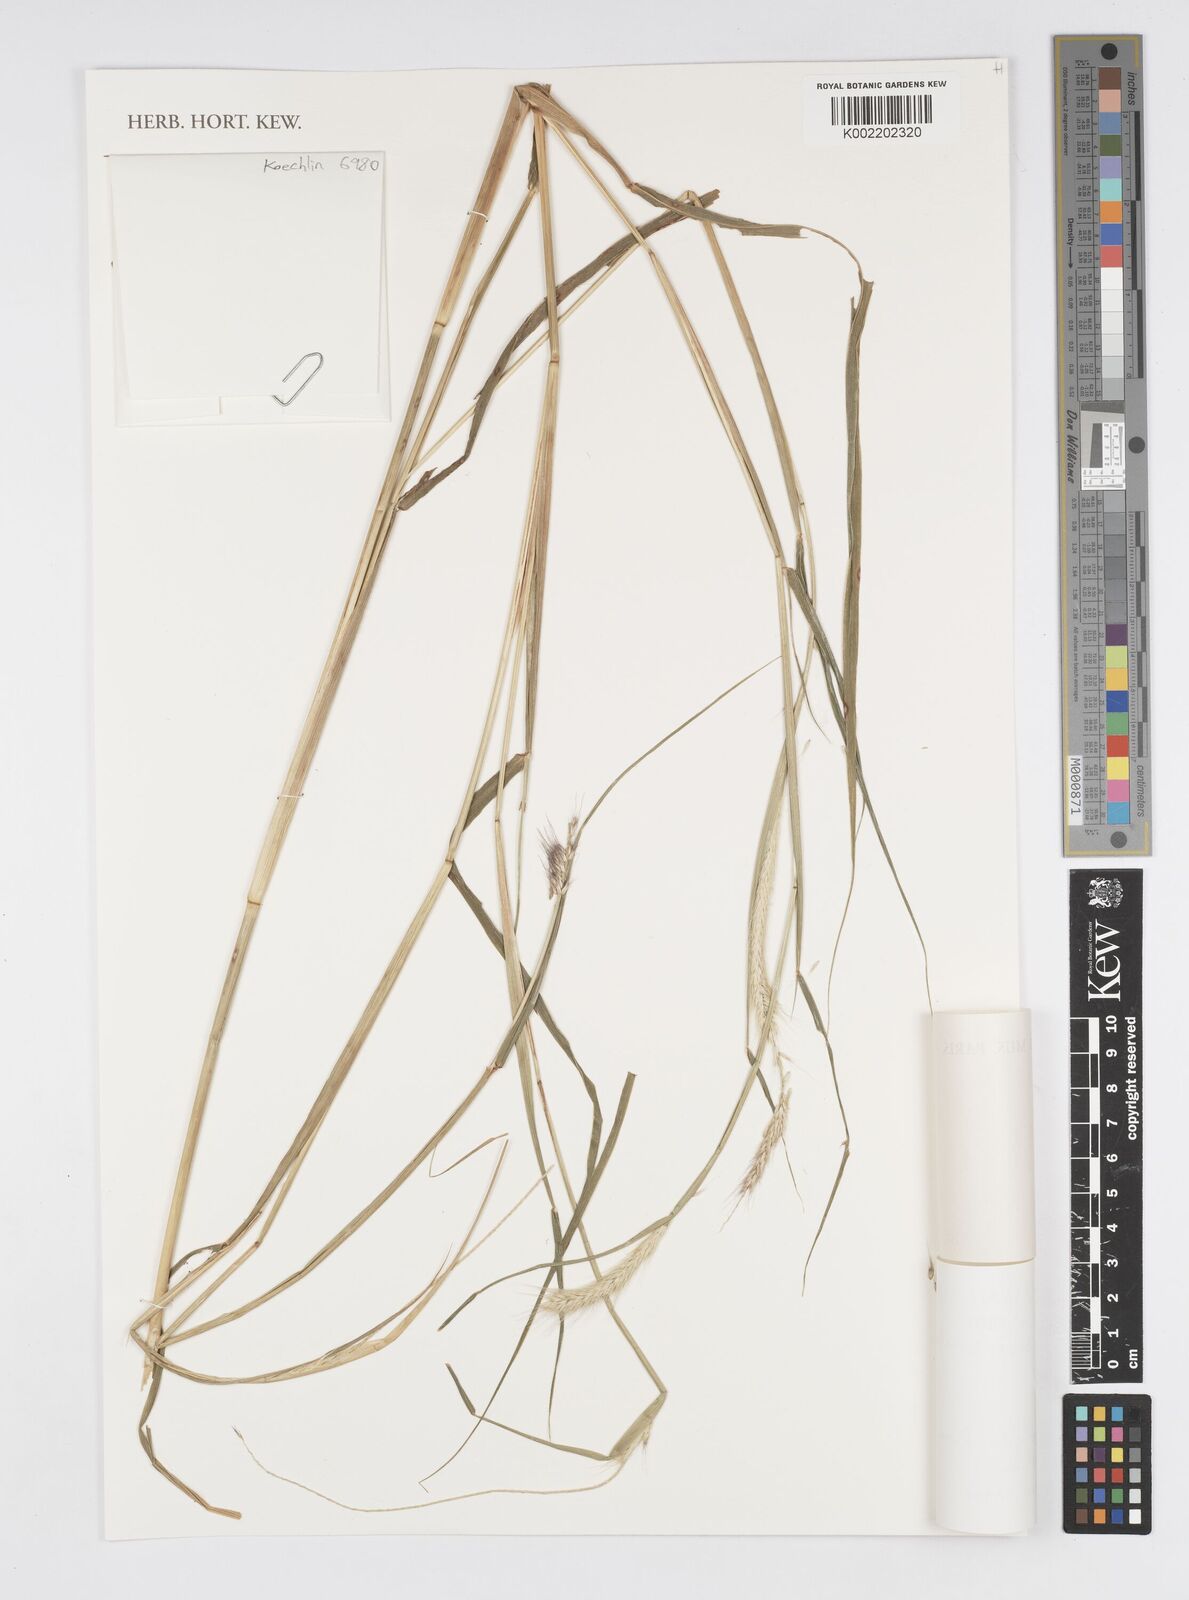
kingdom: Plantae
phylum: Tracheophyta
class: Liliopsida
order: Poales
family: Poaceae
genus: Setaria
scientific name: Setaria parviflora
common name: Knotroot bristle-grass
